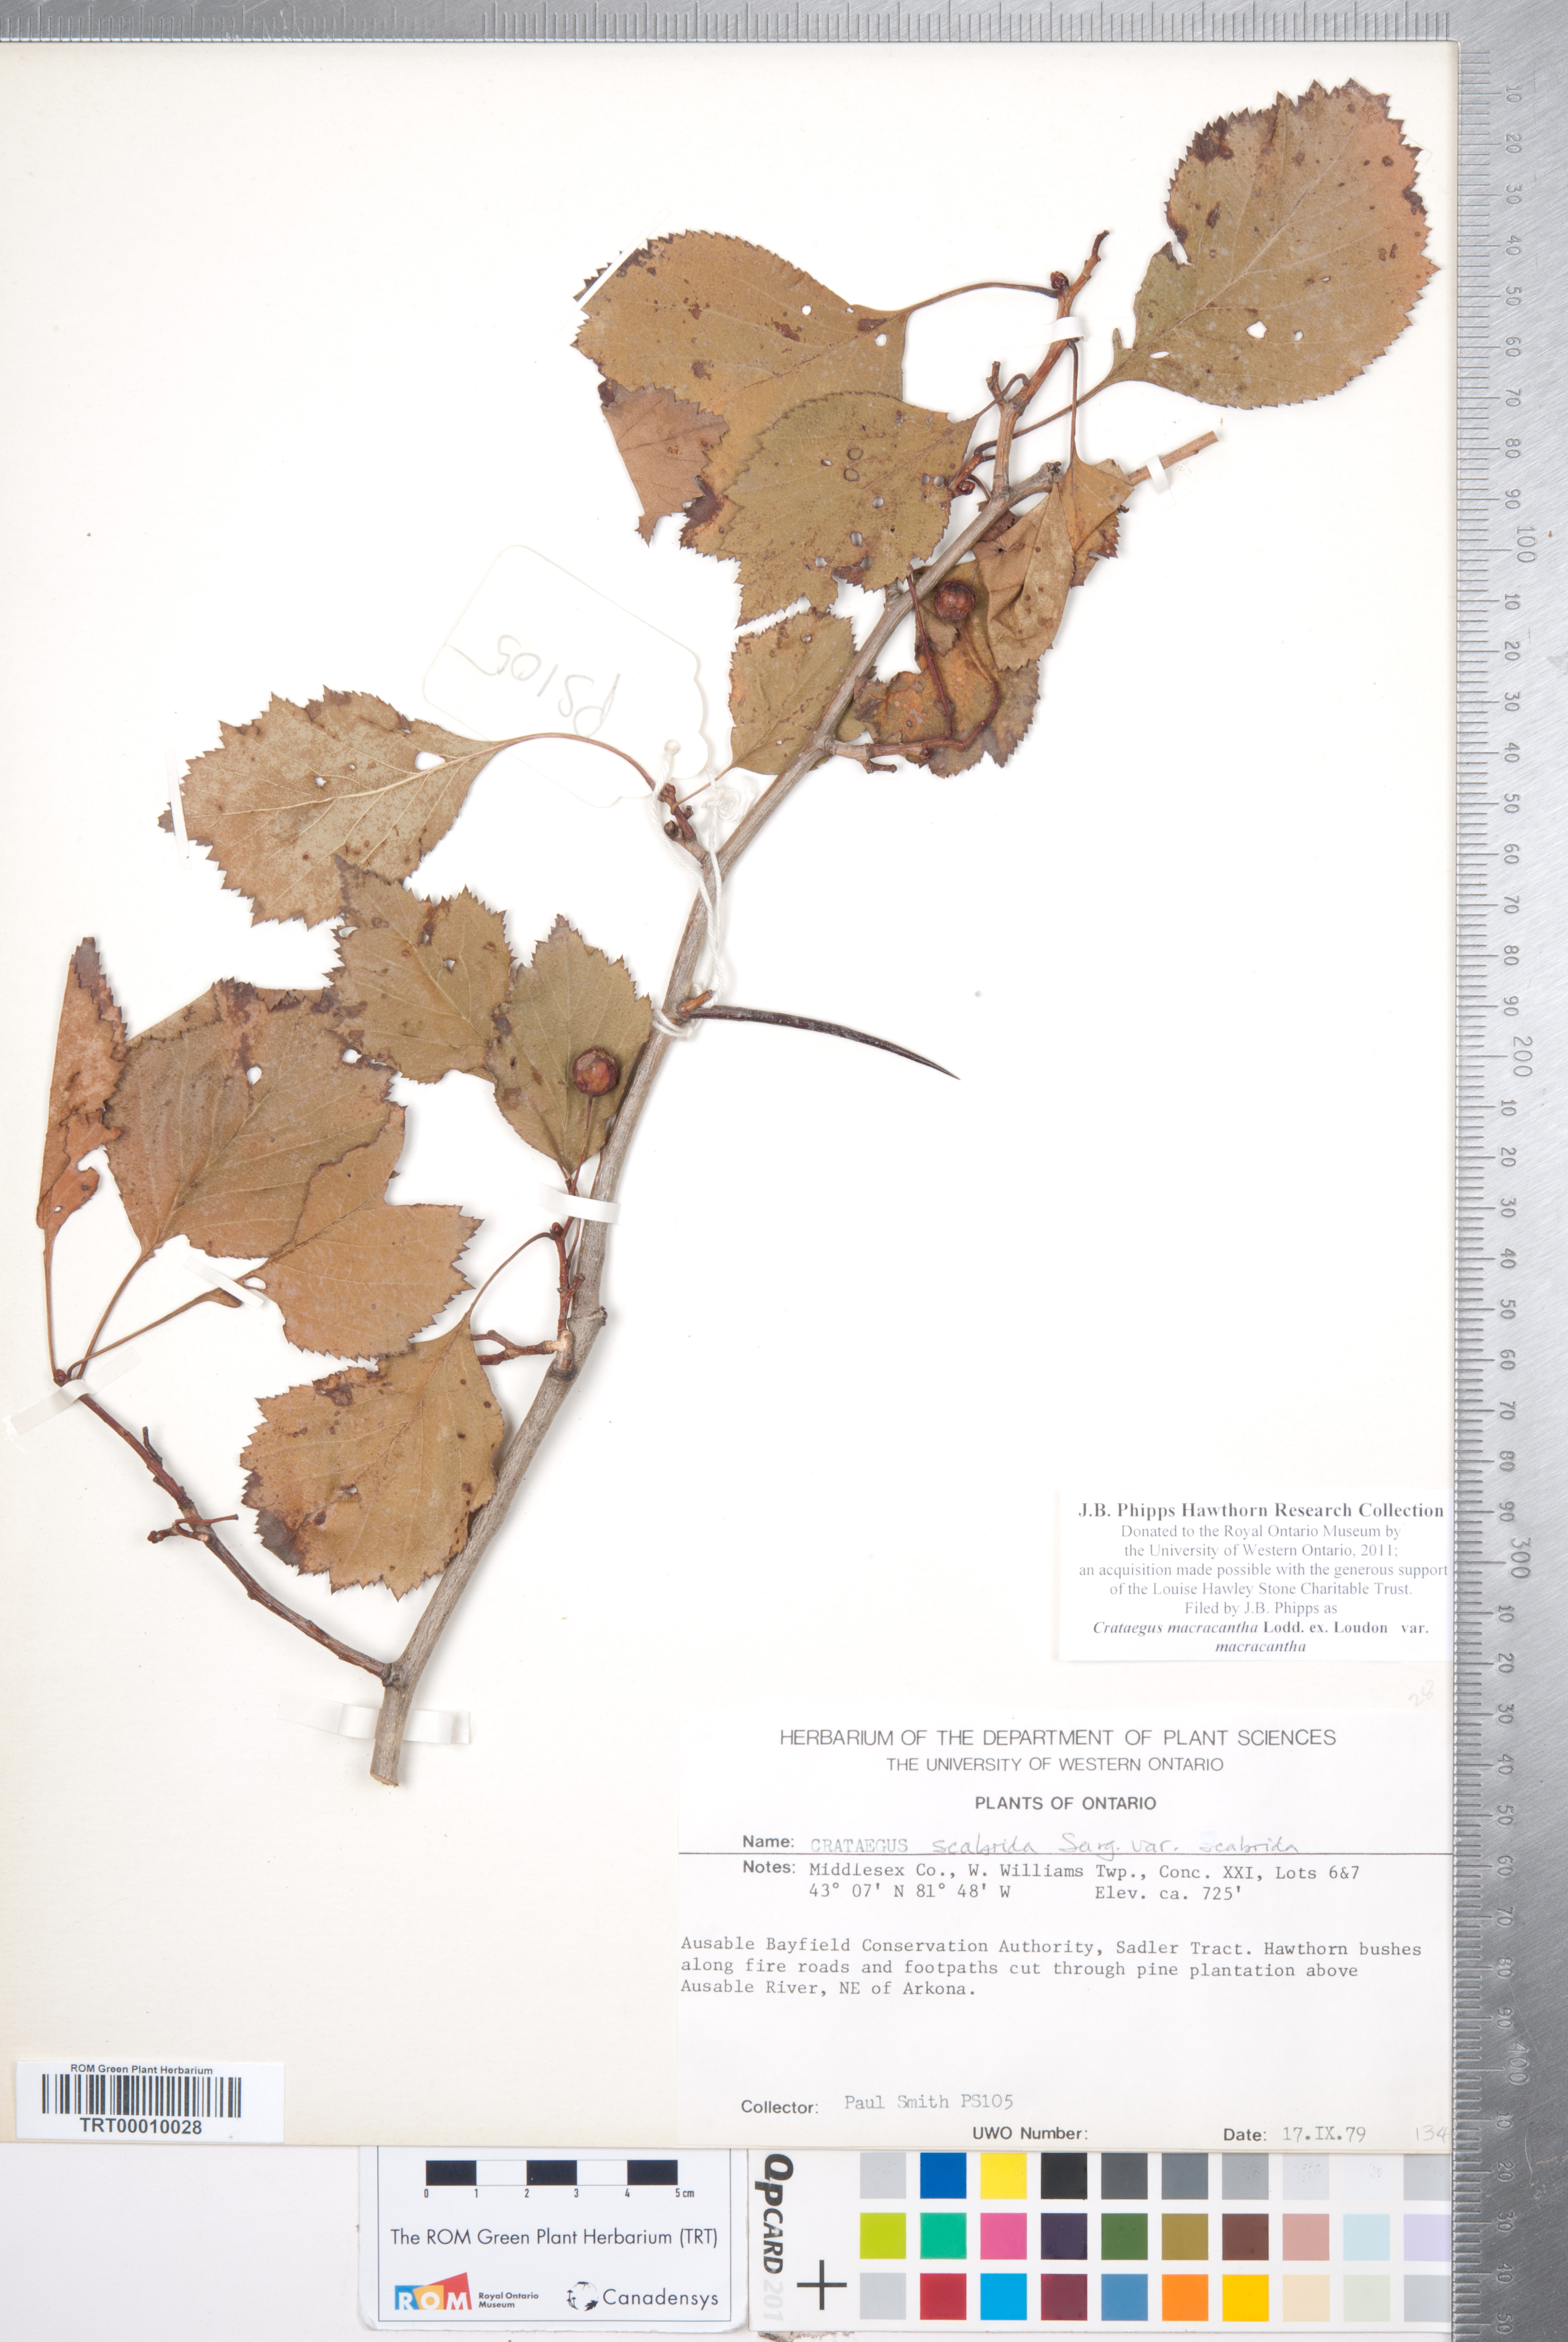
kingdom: Plantae
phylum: Tracheophyta
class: Magnoliopsida
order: Rosales
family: Rosaceae
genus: Crataegus
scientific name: Crataegus macracantha
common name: Large-thorn hawthorn
